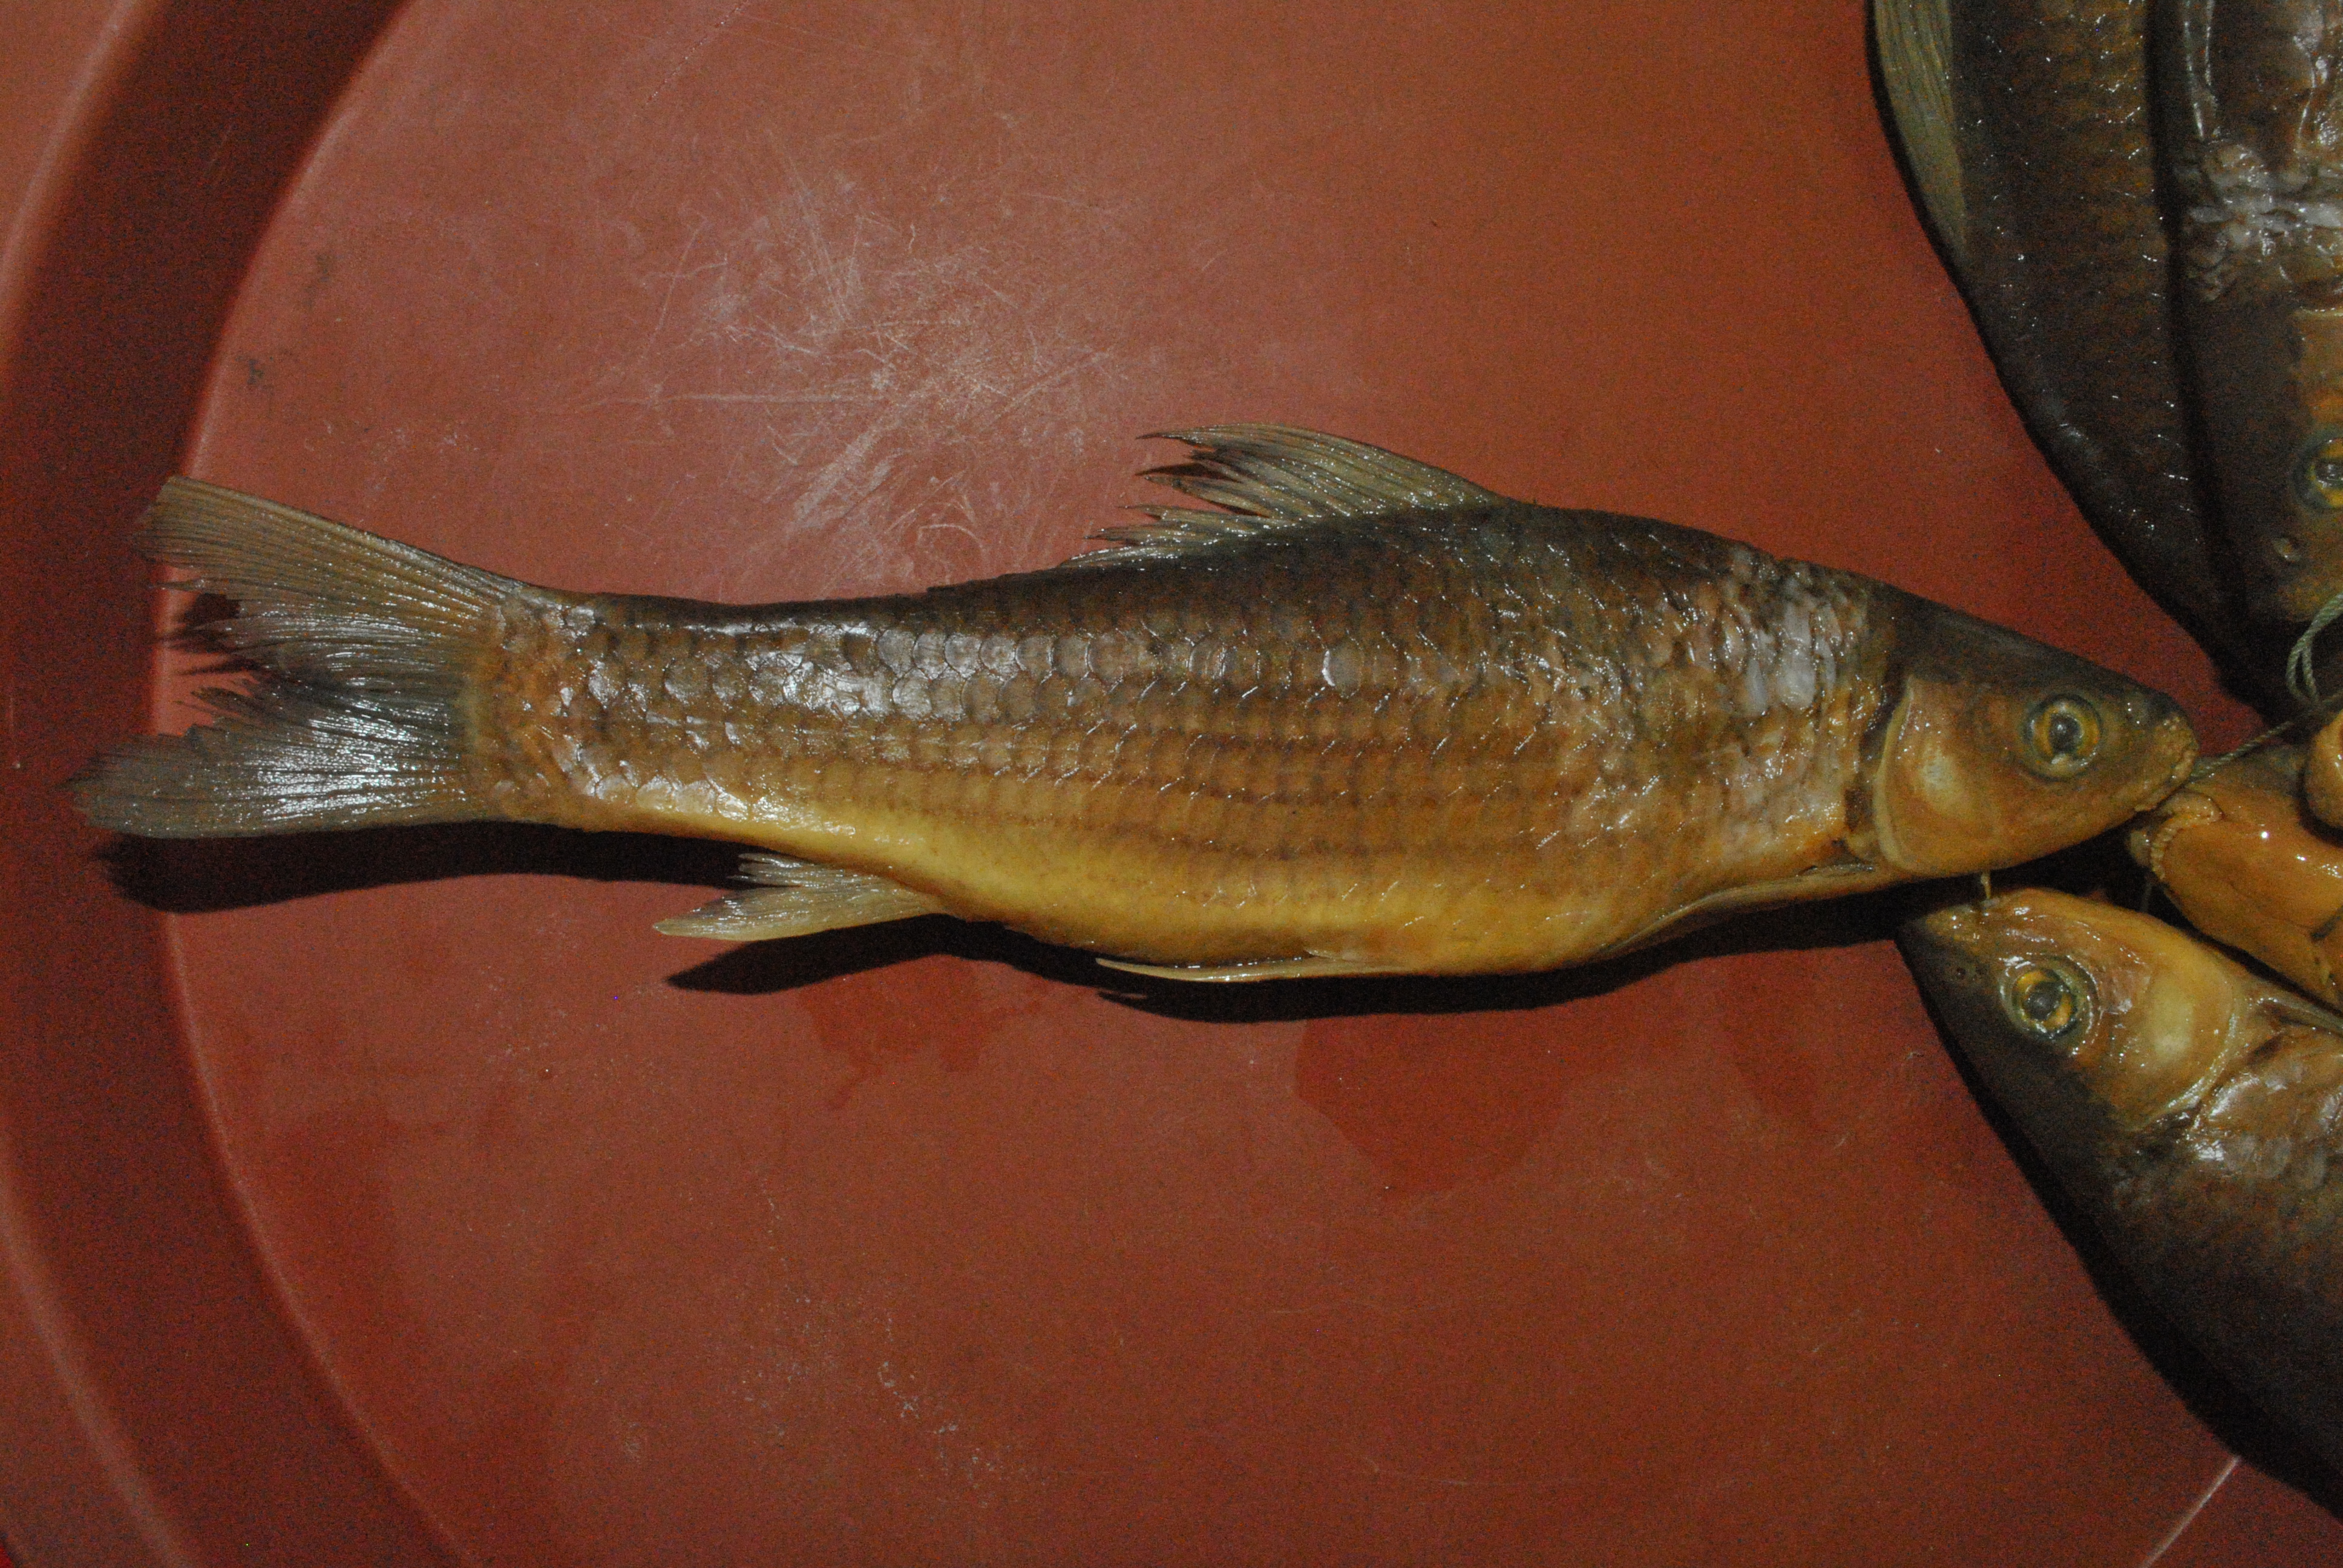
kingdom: Animalia
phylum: Chordata
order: Cypriniformes
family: Cyprinidae
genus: Labeo
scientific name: Labeo mesops
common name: African carp
